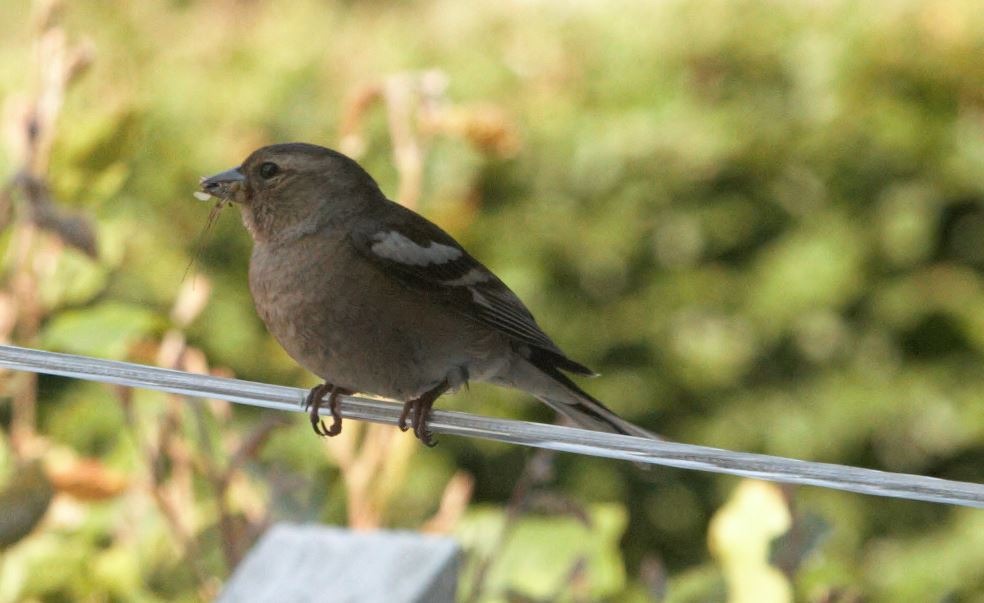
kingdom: Animalia
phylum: Chordata
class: Aves
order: Passeriformes
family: Fringillidae
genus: Fringilla
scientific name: Fringilla coelebs
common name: Bogfinke
